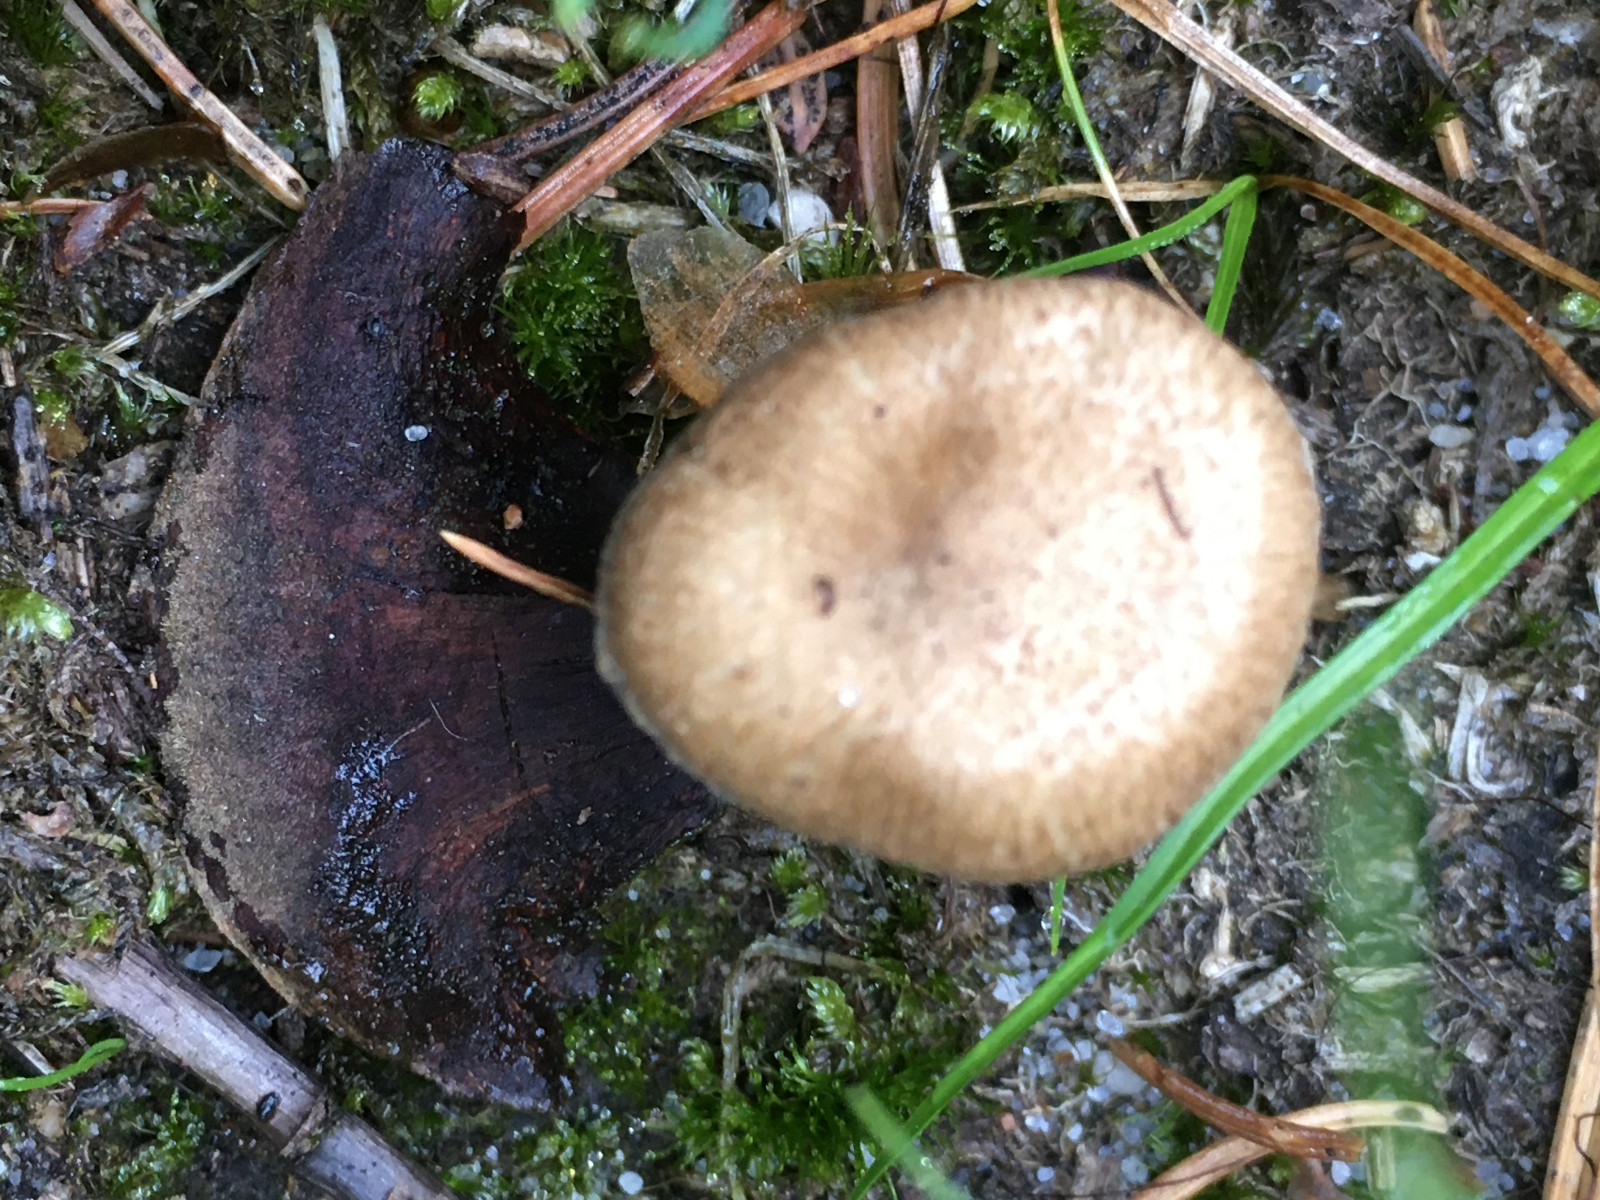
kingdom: Fungi
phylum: Basidiomycota
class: Agaricomycetes
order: Agaricales
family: Inocybaceae
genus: Inocybe
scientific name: Inocybe
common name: trævlhat
